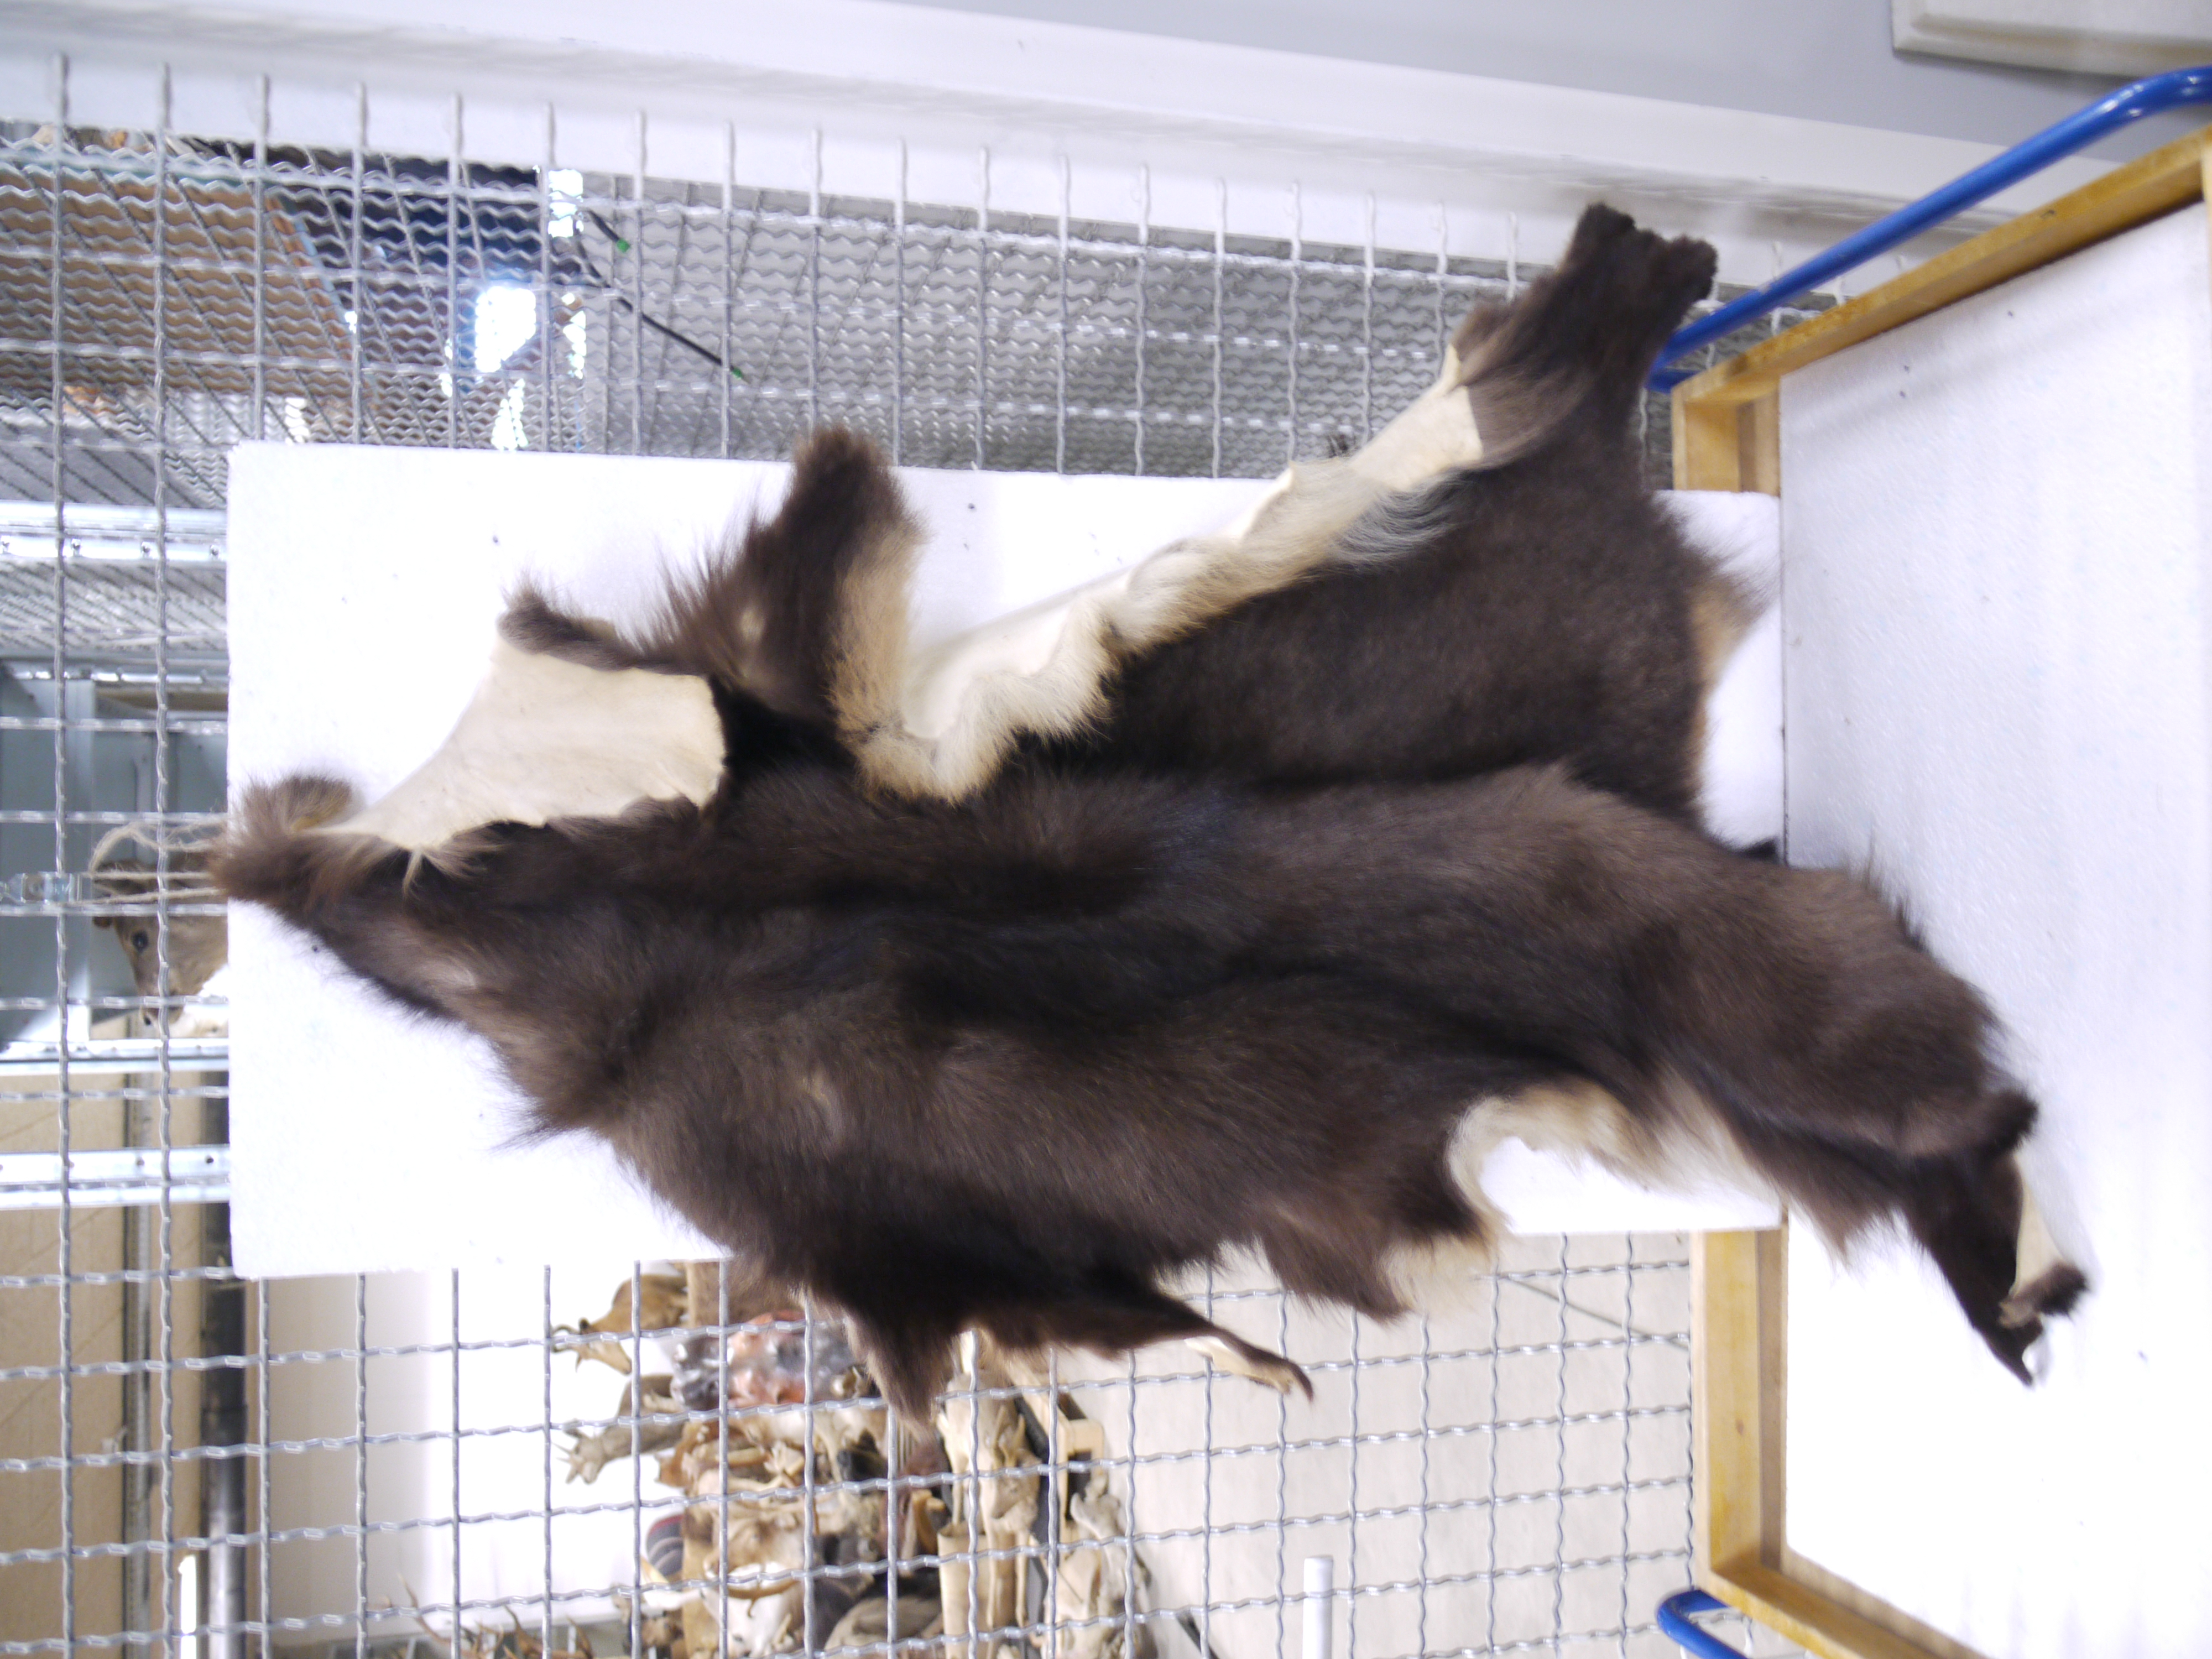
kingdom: Animalia
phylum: Chordata
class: Mammalia
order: Artiodactyla
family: Bovidae
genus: Rupicapra
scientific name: Rupicapra rupicapra
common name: Chamois
